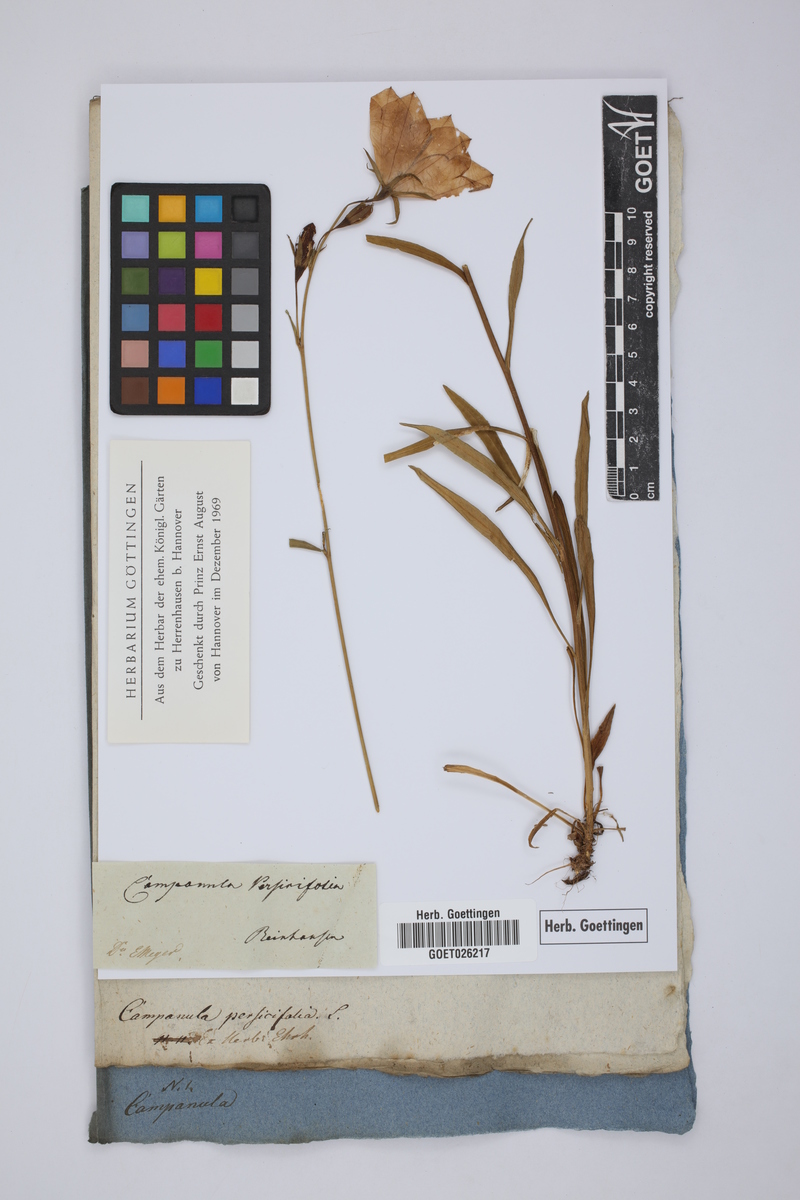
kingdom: Plantae
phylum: Tracheophyta
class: Magnoliopsida
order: Asterales
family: Campanulaceae
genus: Campanula
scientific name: Campanula persicifolia
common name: Peach-leaved bellflower
